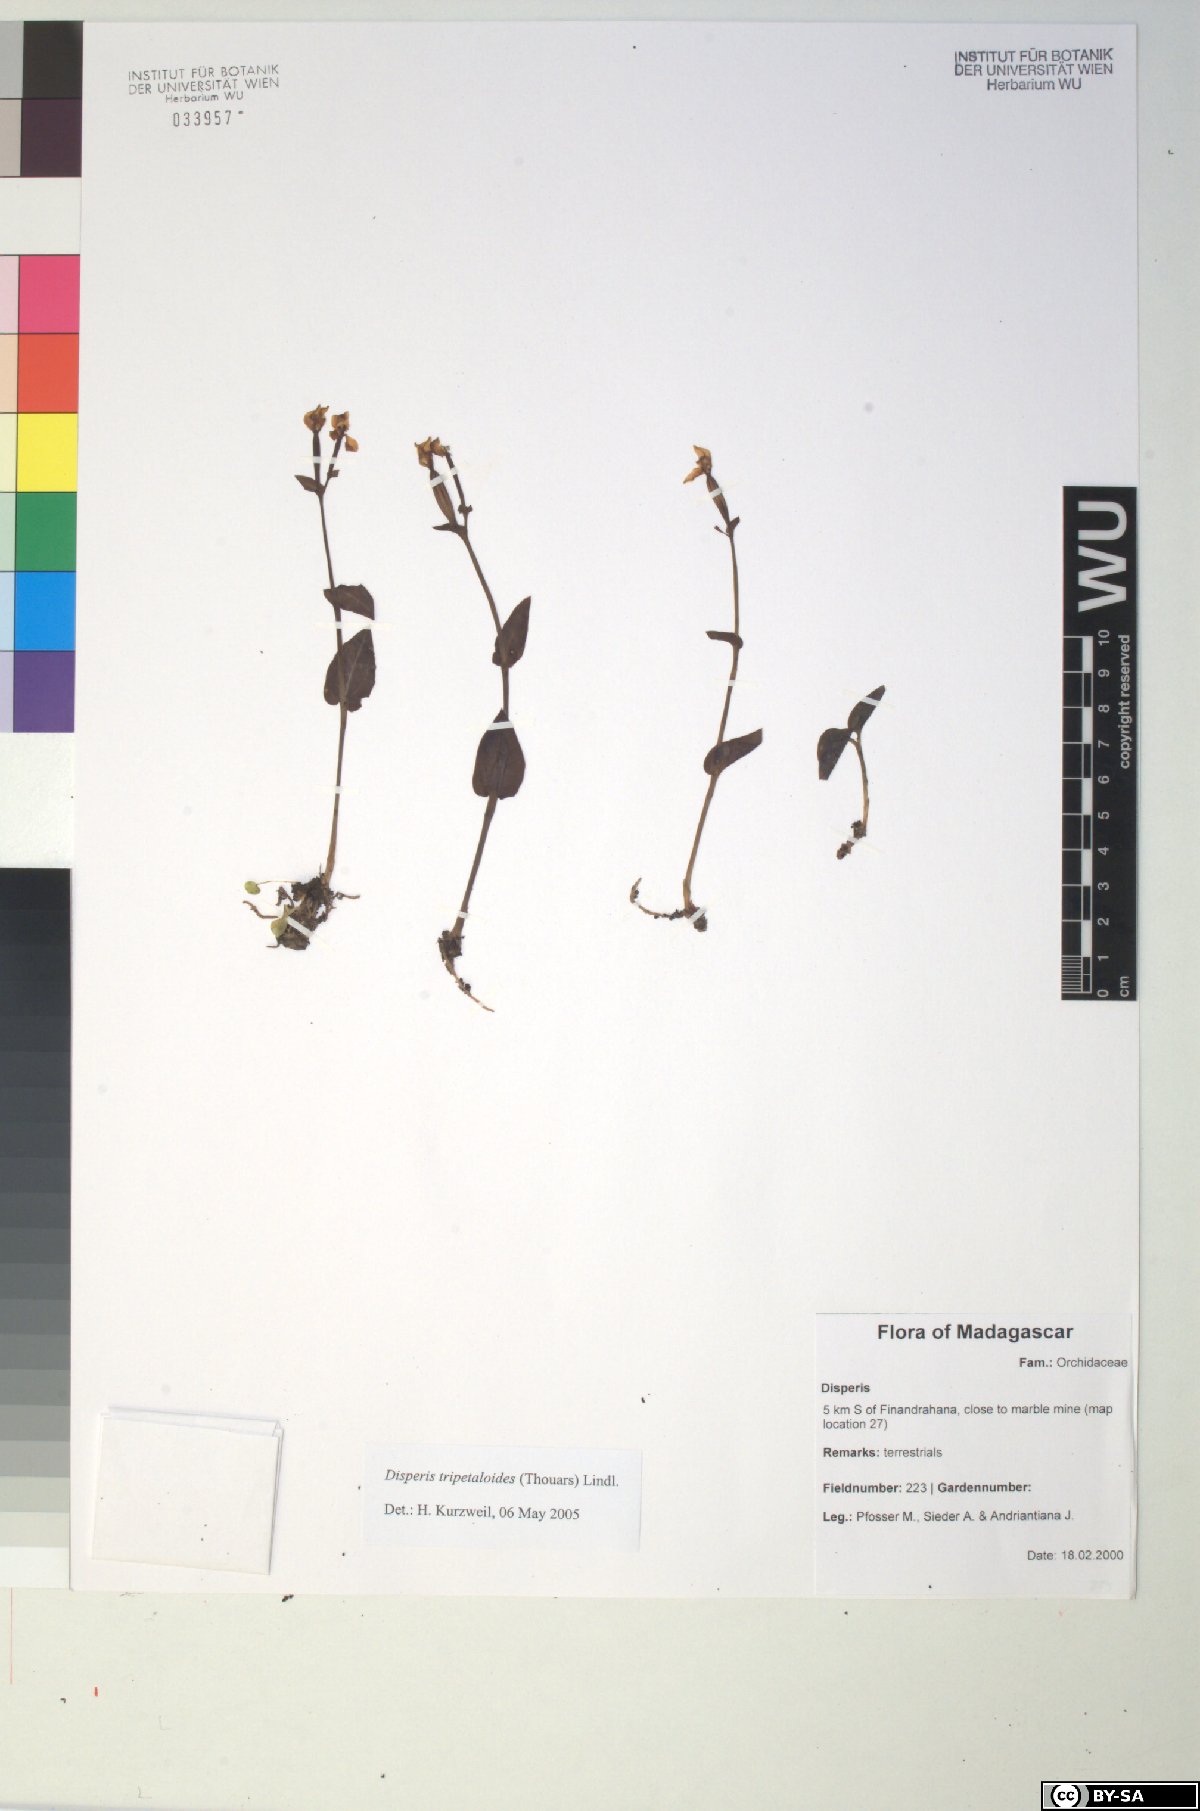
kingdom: Plantae
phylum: Tracheophyta
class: Liliopsida
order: Asparagales
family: Orchidaceae
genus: Disperis
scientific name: Disperis tripetaloides
